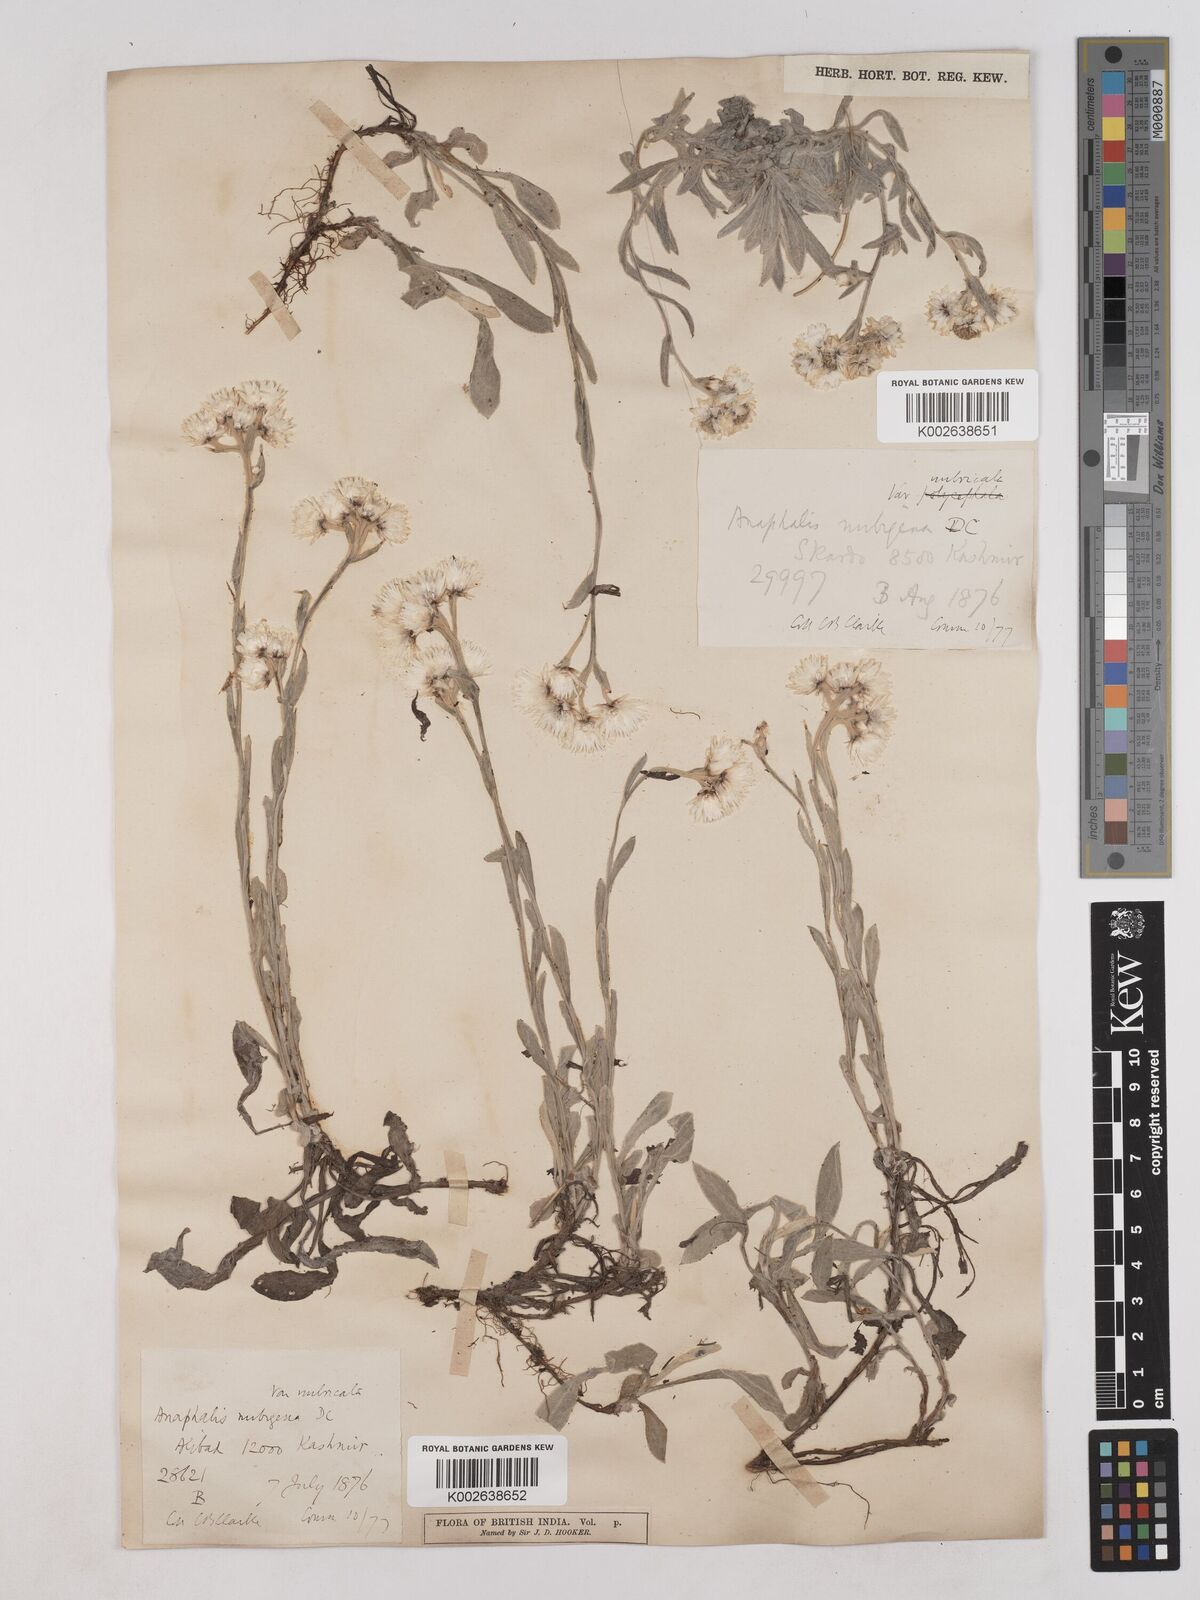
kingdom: Plantae
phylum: Tracheophyta
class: Magnoliopsida
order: Asterales
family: Asteraceae
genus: Anaphalis
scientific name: Anaphalis
